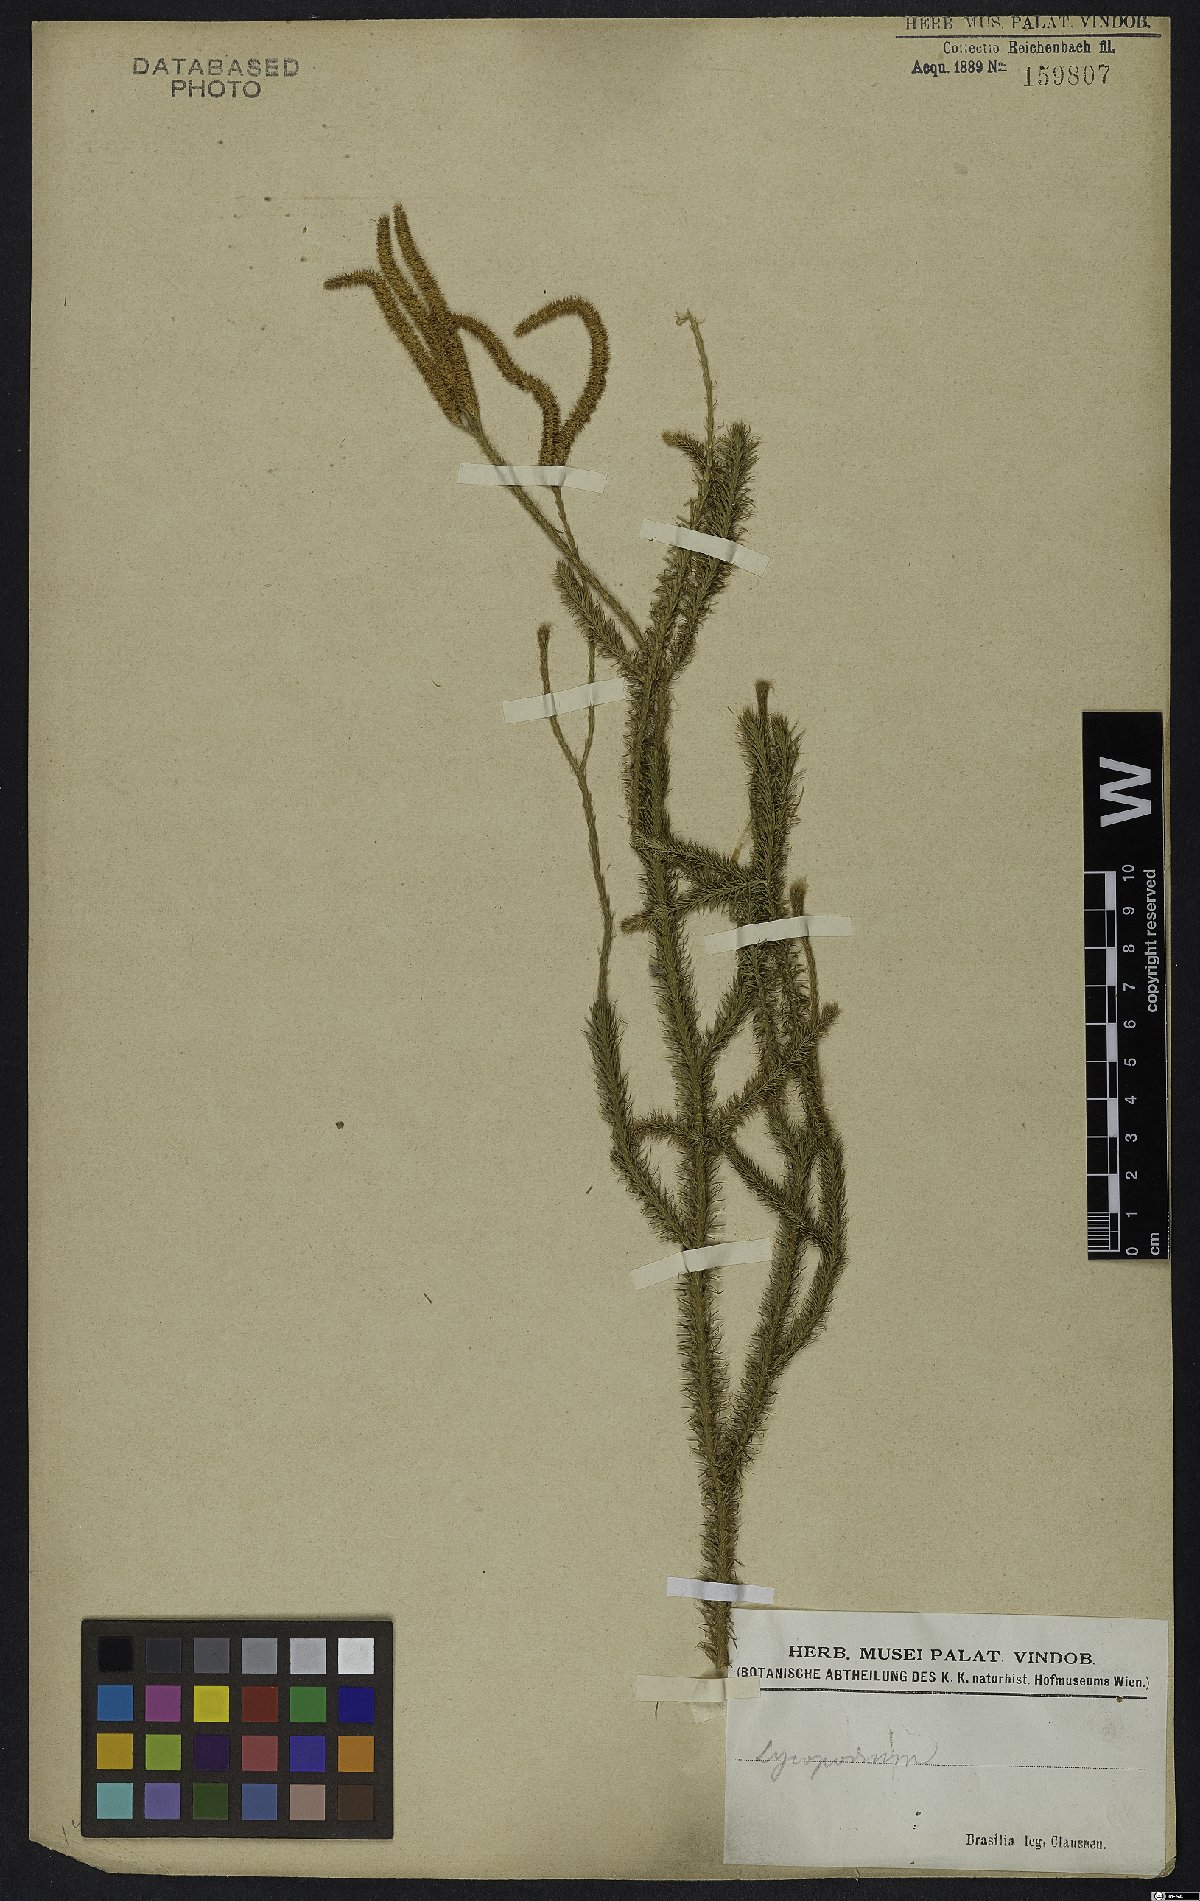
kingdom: Plantae
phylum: Tracheophyta
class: Lycopodiopsida
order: Lycopodiales
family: Lycopodiaceae
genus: Lycopodium
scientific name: Lycopodium
